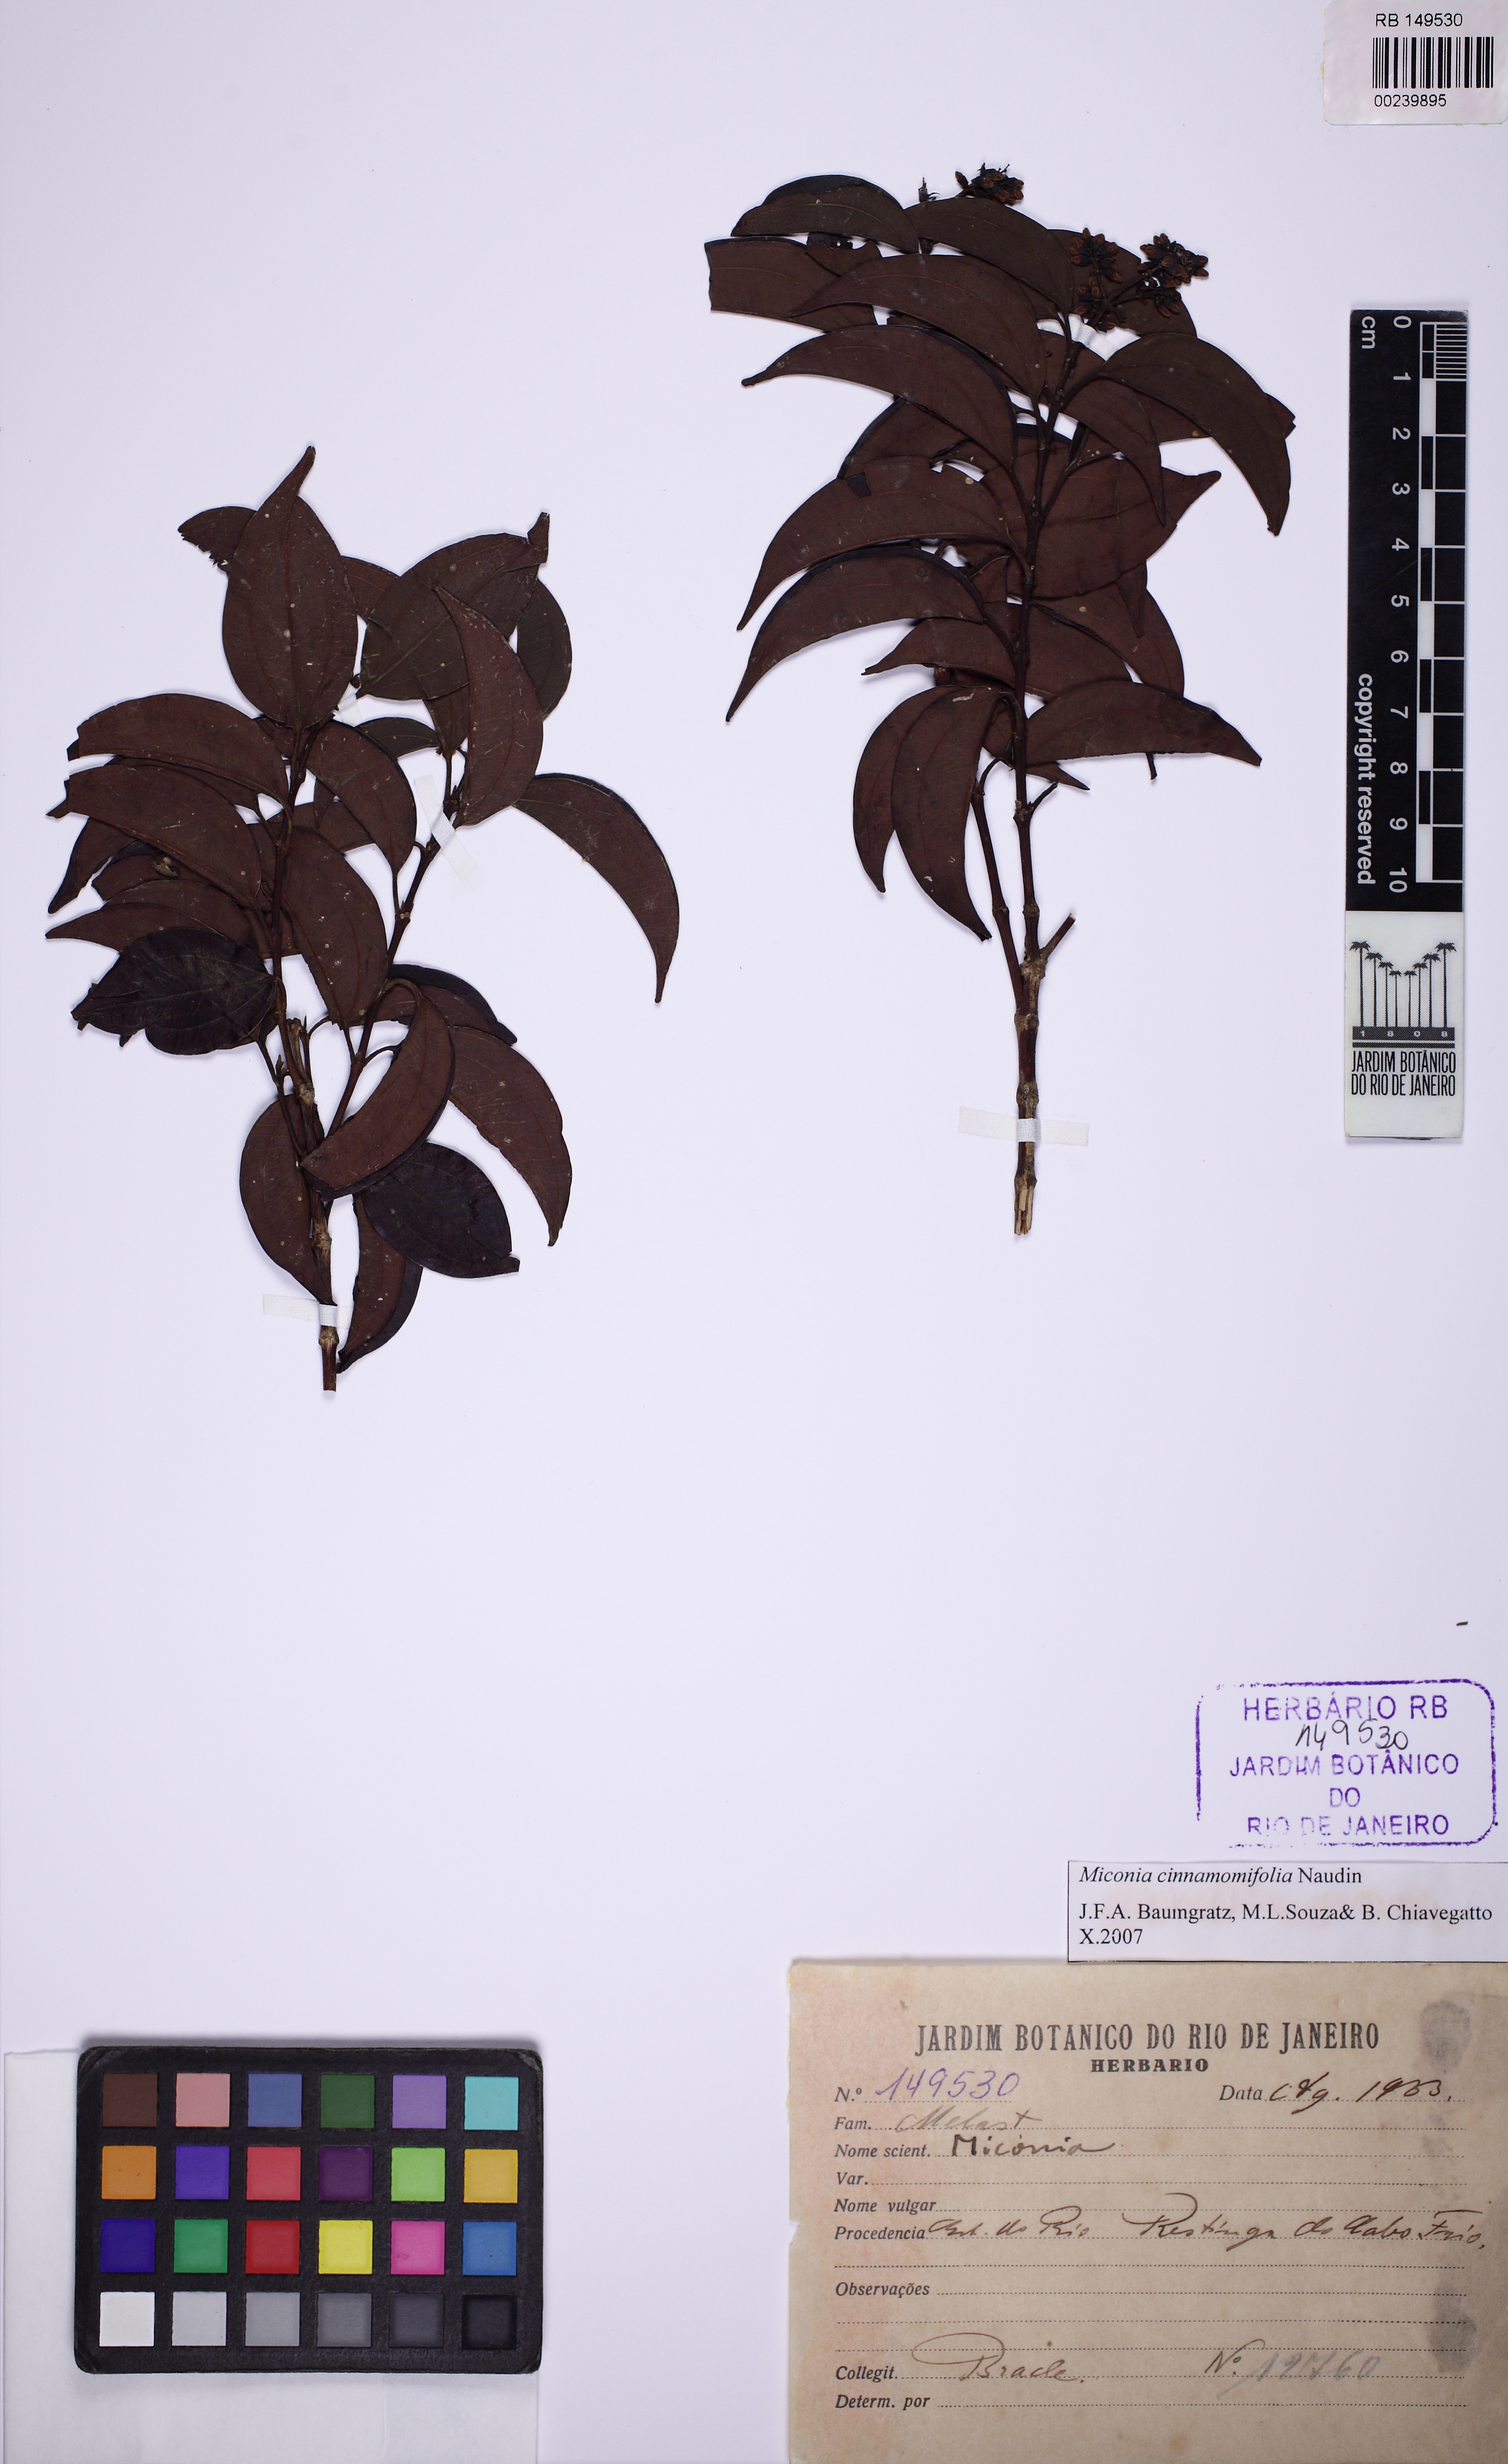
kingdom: Plantae
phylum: Tracheophyta
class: Magnoliopsida
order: Myrtales
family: Melastomataceae
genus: Miconia
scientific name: Miconia cinnamomifolia
